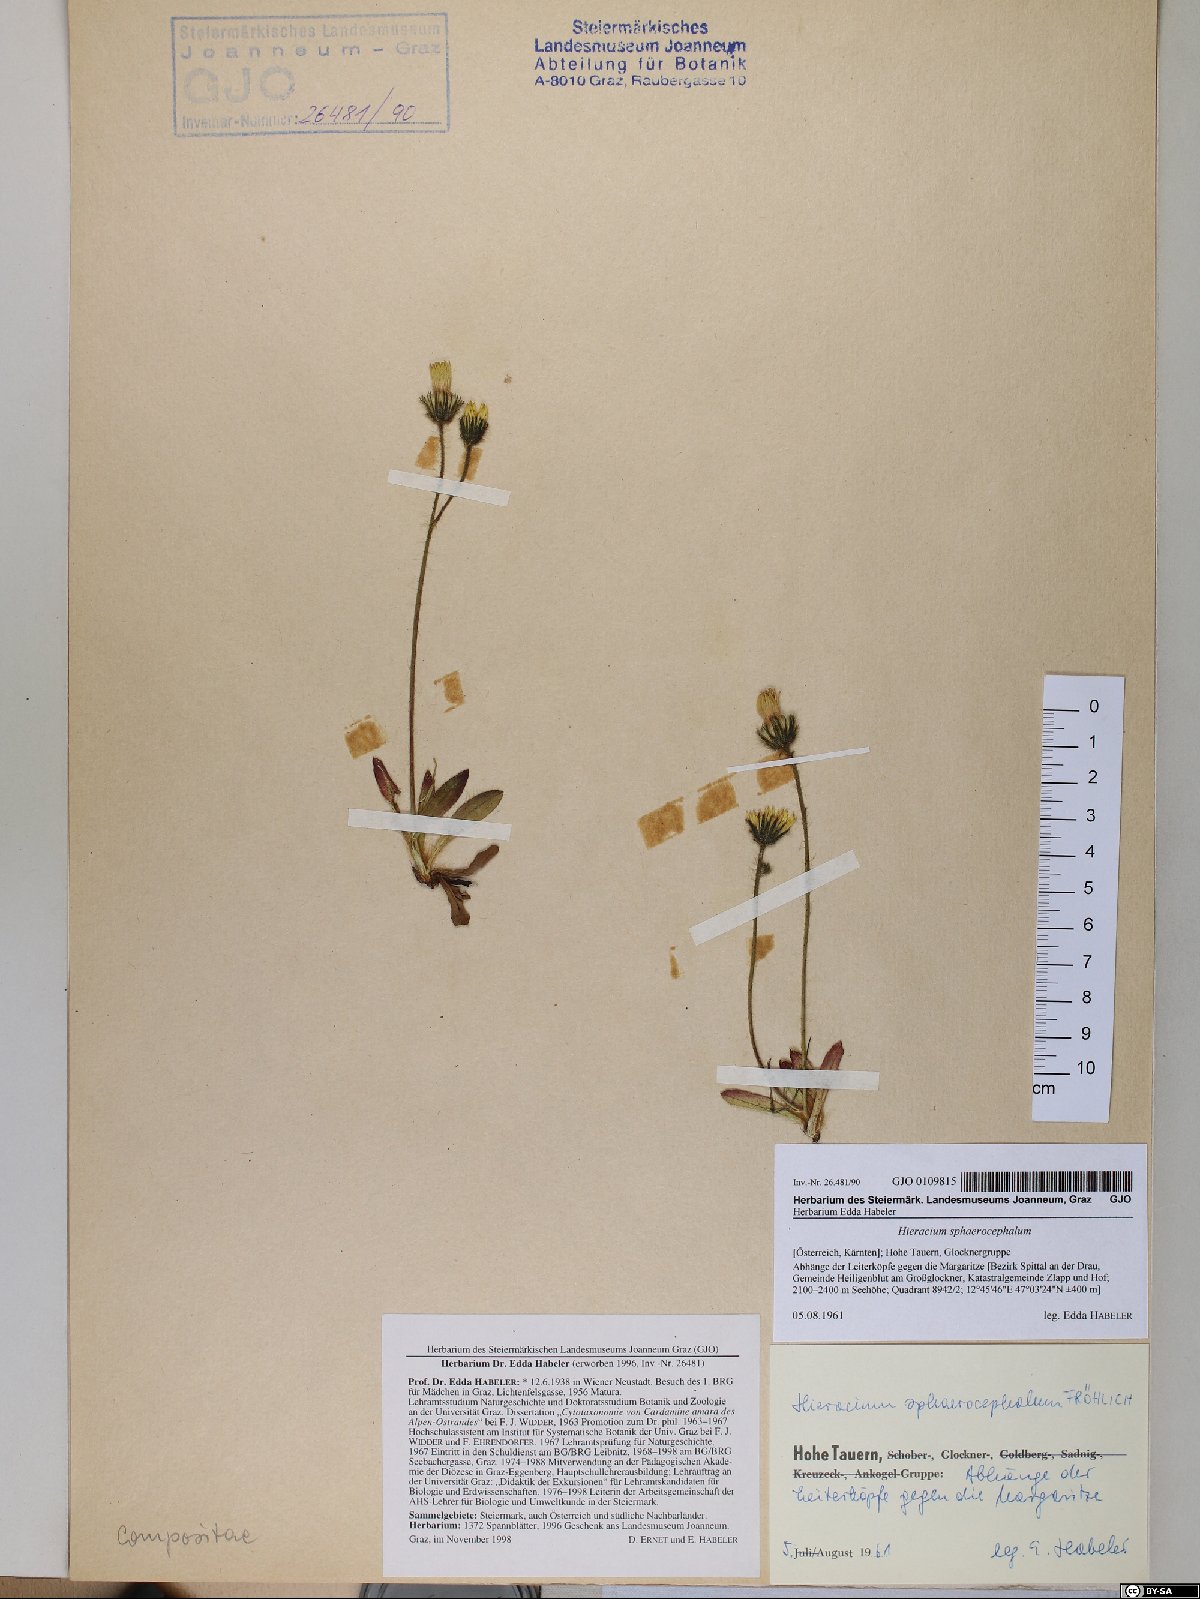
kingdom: Plantae
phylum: Tracheophyta
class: Magnoliopsida
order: Asterales
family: Asteraceae
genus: Pilosella
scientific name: Pilosella sphaerocephala
